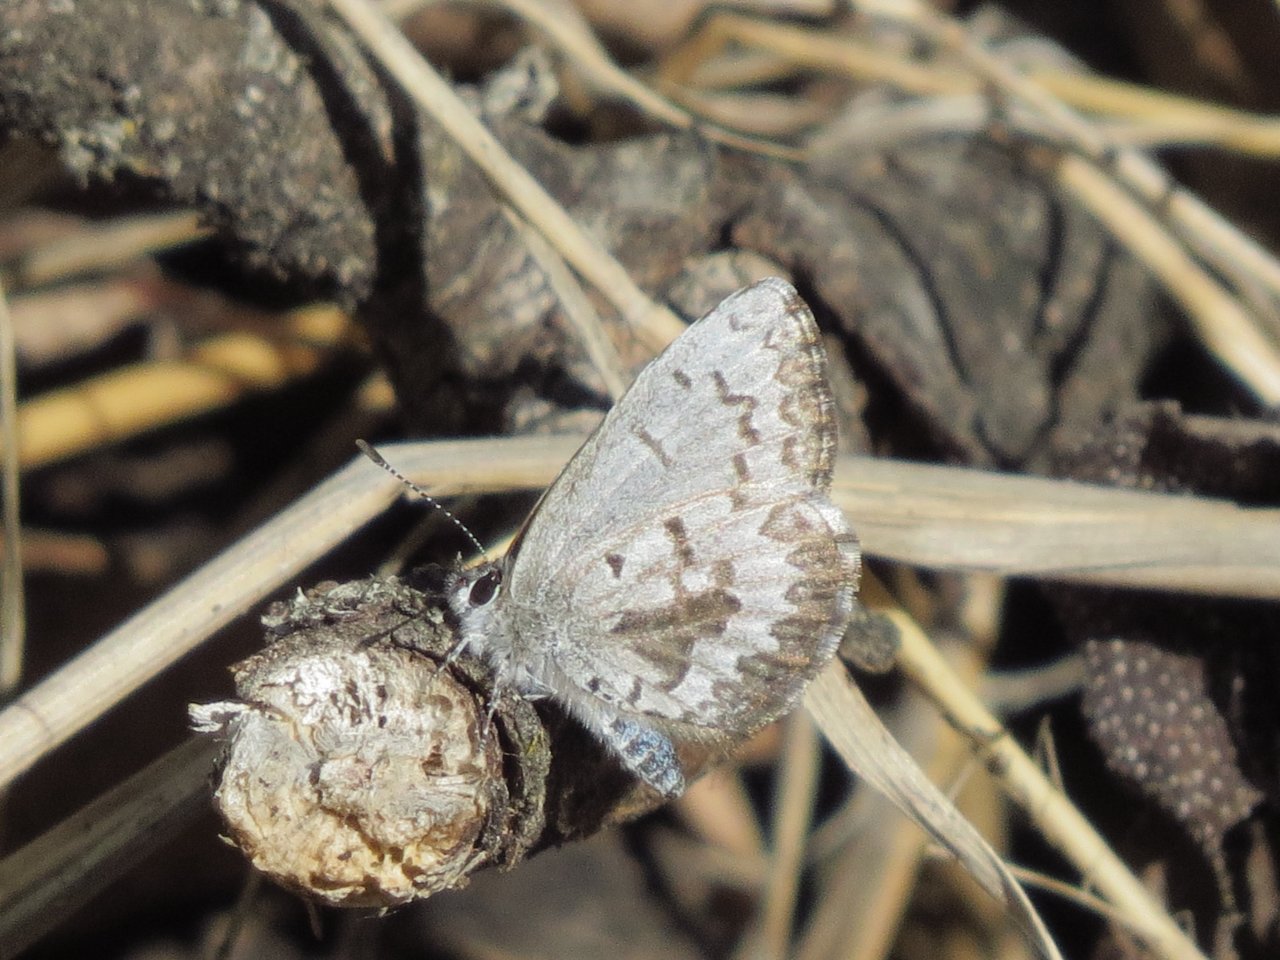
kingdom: Animalia
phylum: Arthropoda
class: Insecta
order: Lepidoptera
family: Lycaenidae
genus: Celastrina
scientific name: Celastrina lucia
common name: Northern Spring Azure
